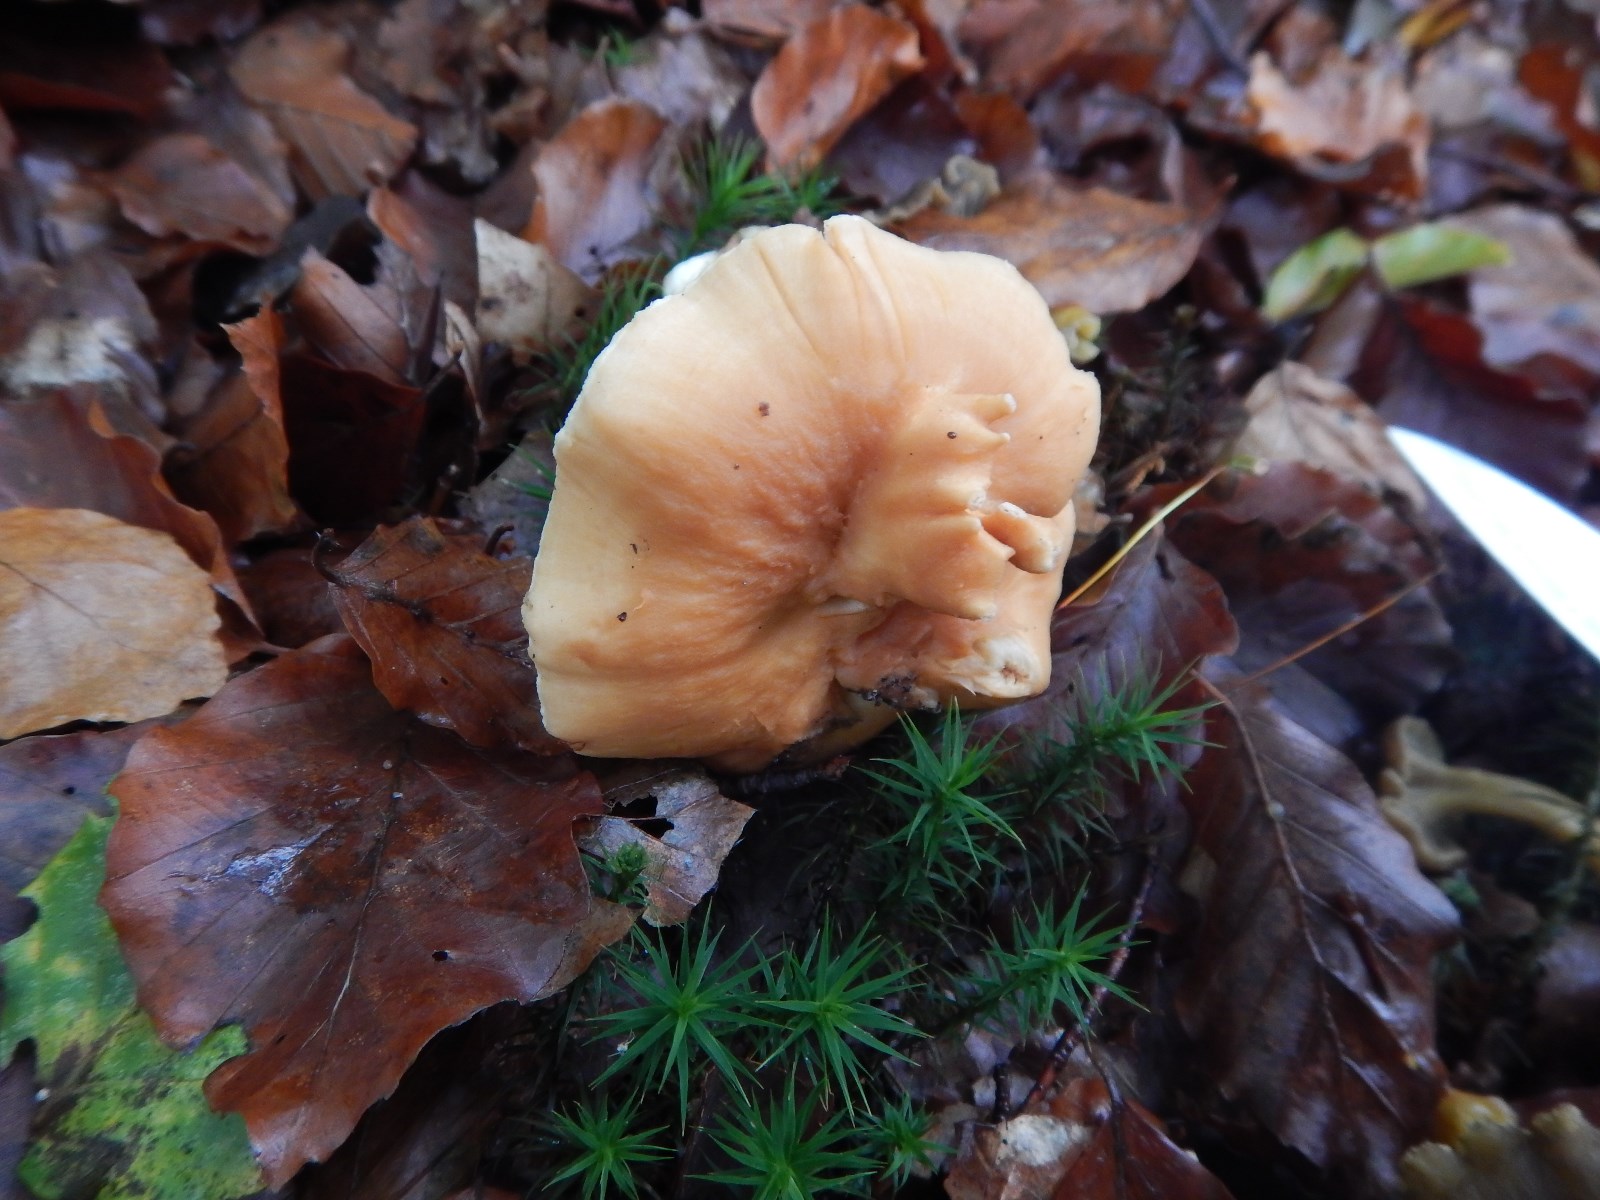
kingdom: Fungi
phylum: Basidiomycota
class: Agaricomycetes
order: Cantharellales
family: Hydnaceae
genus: Hydnum
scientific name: Hydnum
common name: pigsvamp
